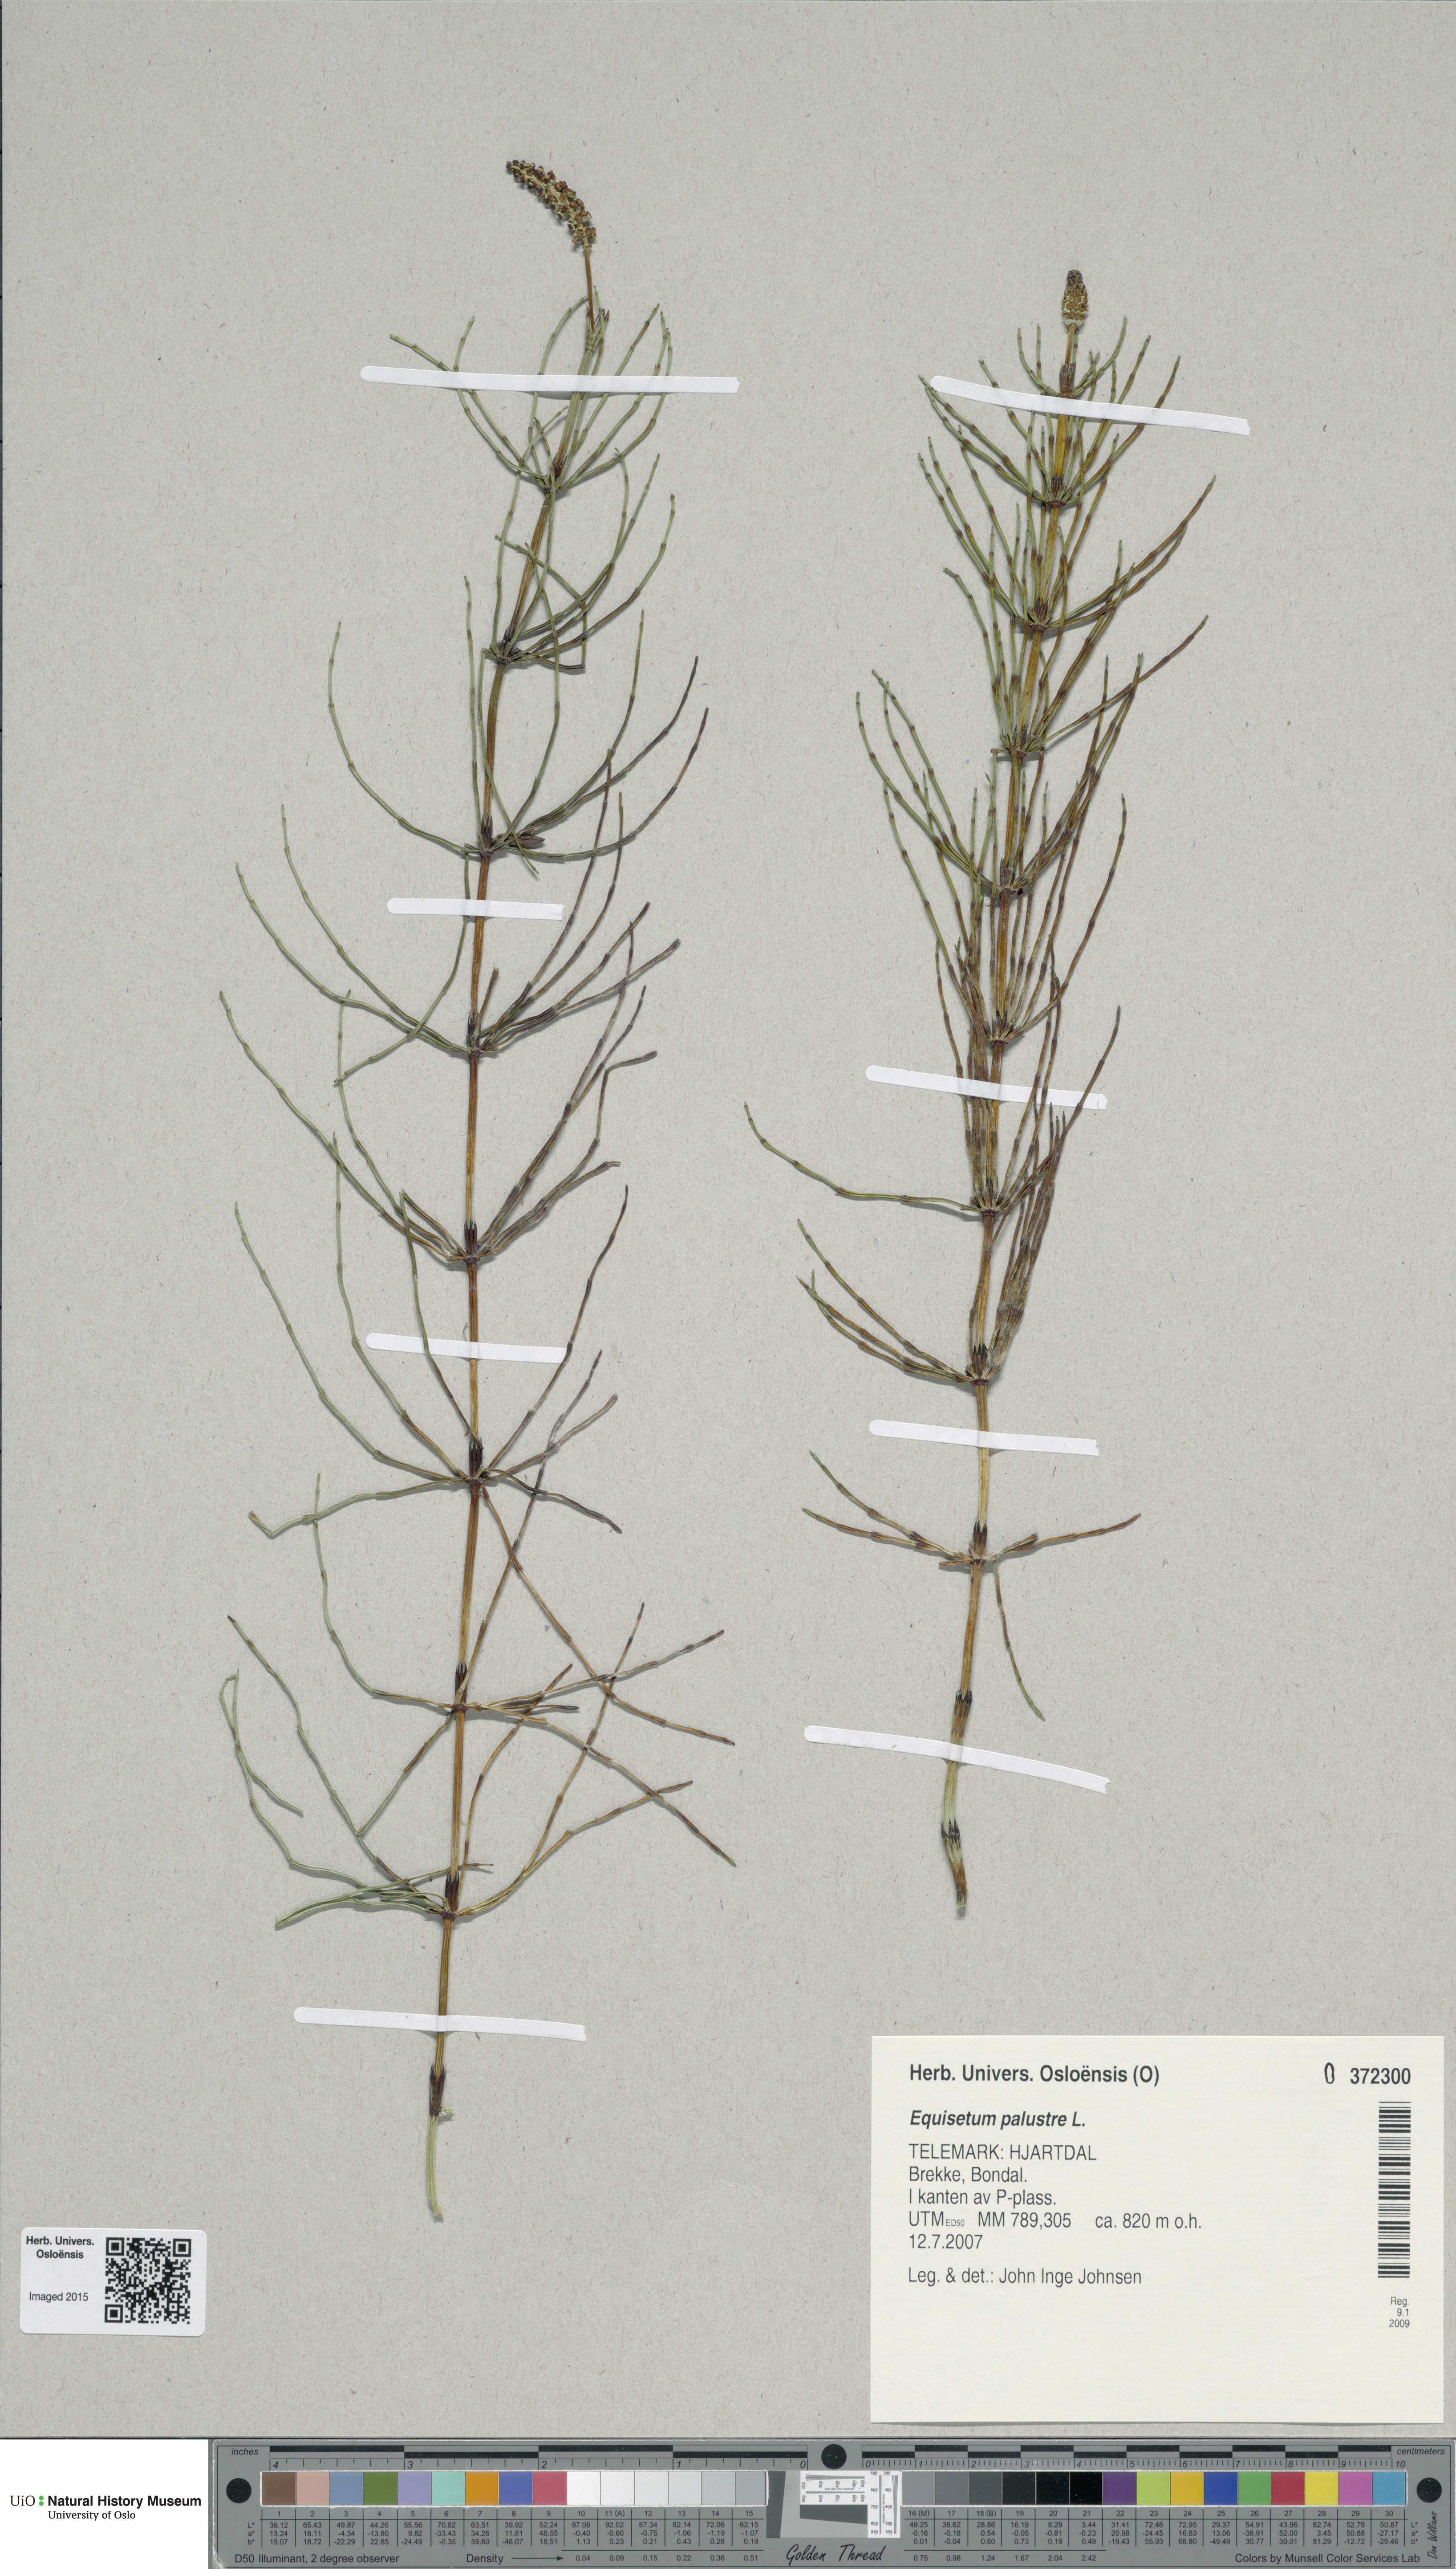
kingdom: Plantae
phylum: Tracheophyta
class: Polypodiopsida
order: Equisetales
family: Equisetaceae
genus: Equisetum
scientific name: Equisetum palustre
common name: Marsh horsetail
